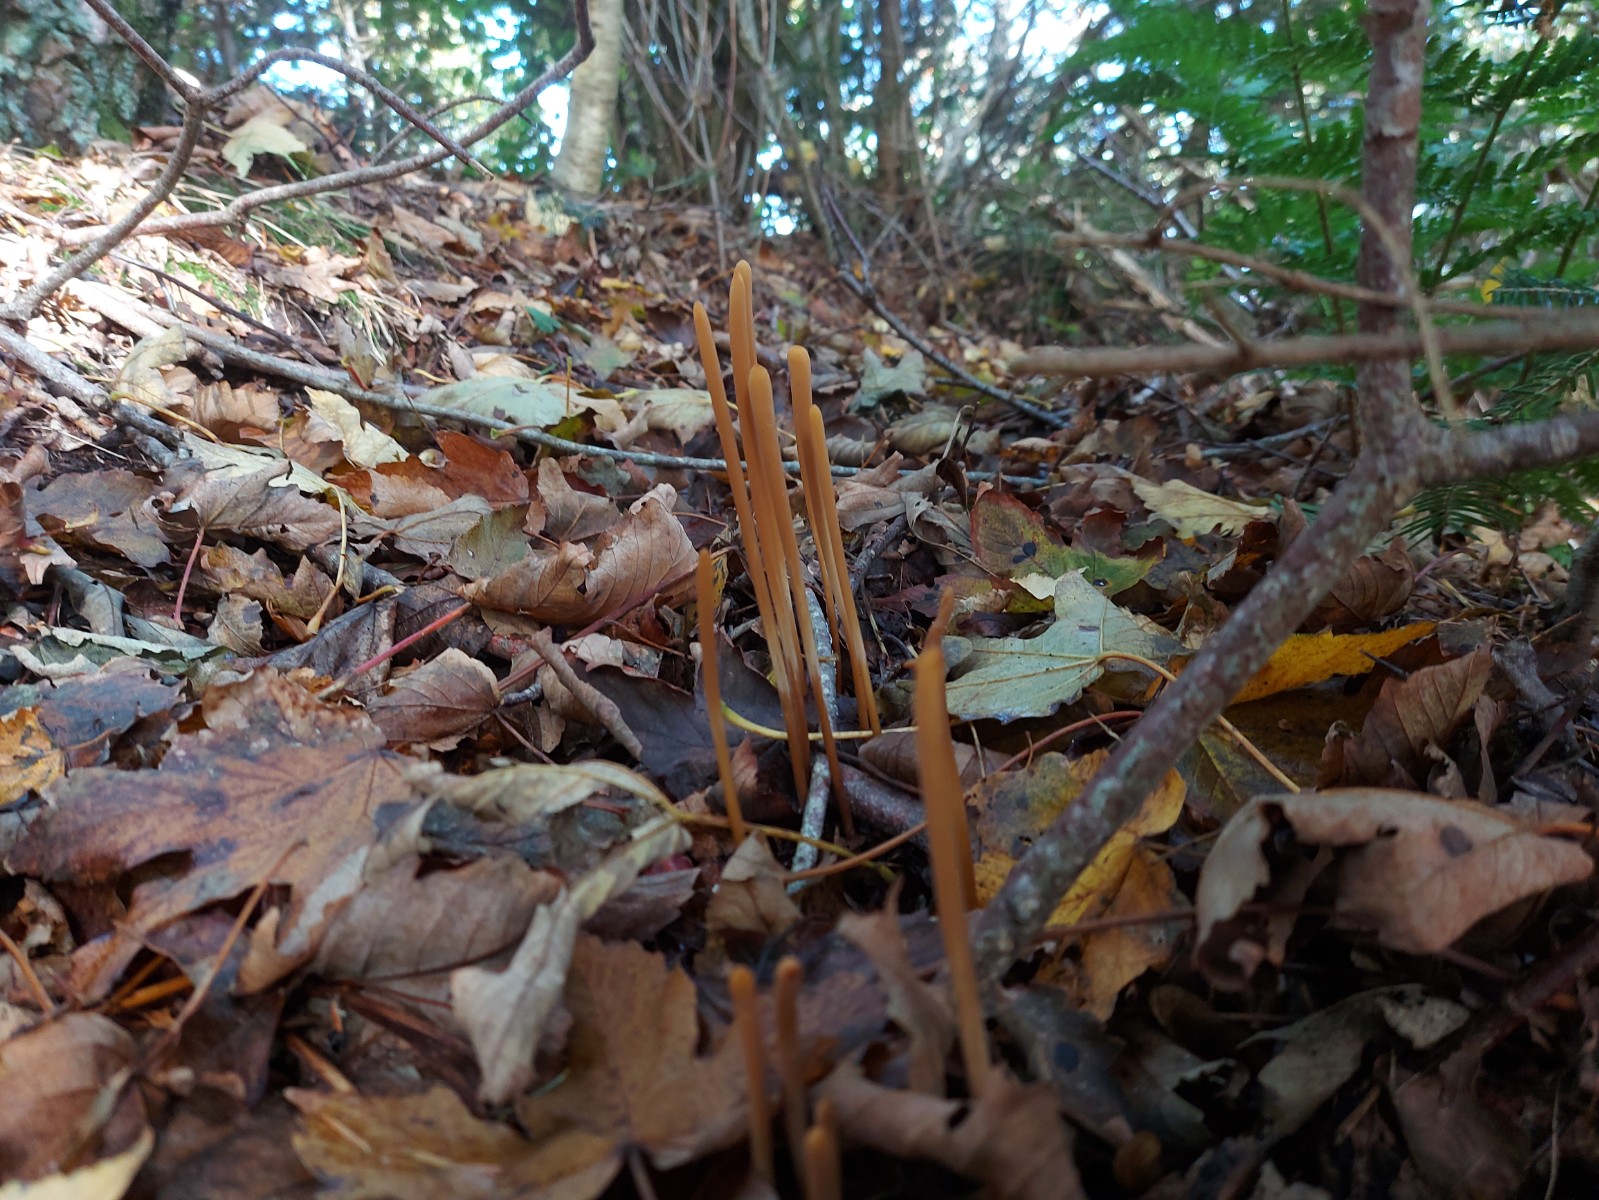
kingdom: Fungi
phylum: Basidiomycota
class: Agaricomycetes
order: Agaricales
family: Typhulaceae
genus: Typhula
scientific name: Typhula fistulosa
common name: pibet rørkølle
